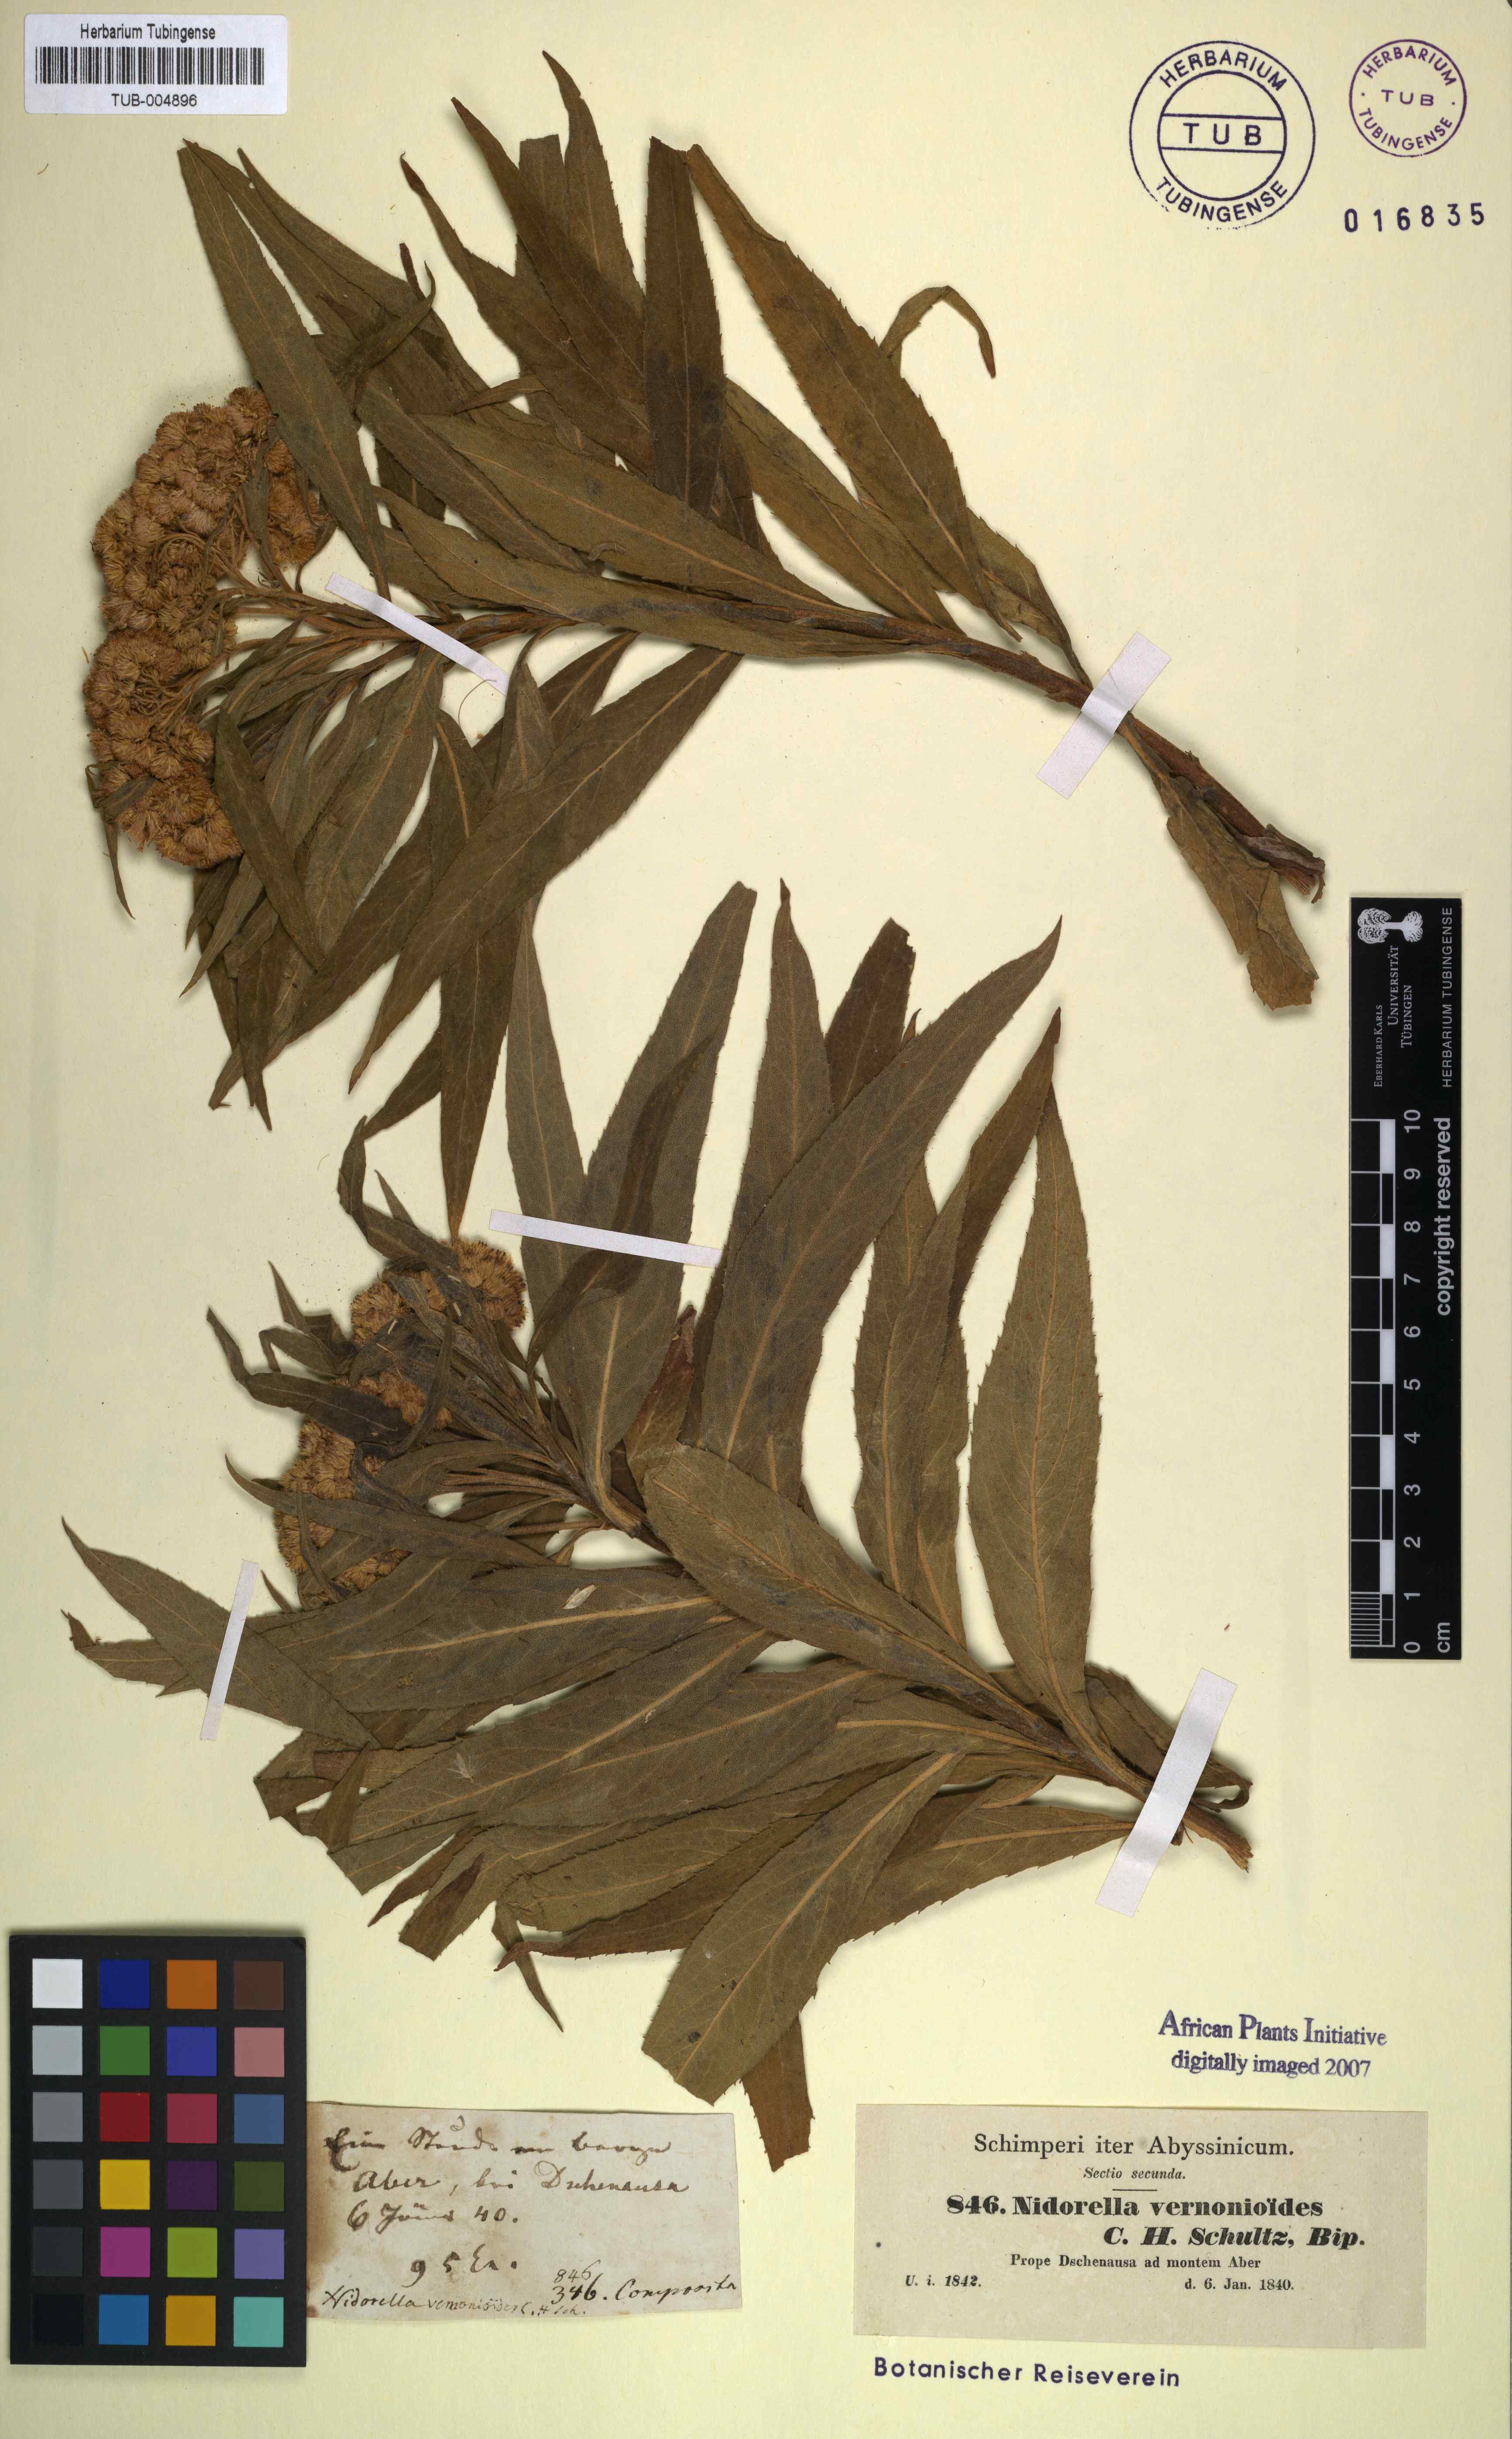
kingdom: Plantae
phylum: Tracheophyta
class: Magnoliopsida
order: Asterales
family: Asteraceae
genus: Nidorella
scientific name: Nidorella vernonioides
